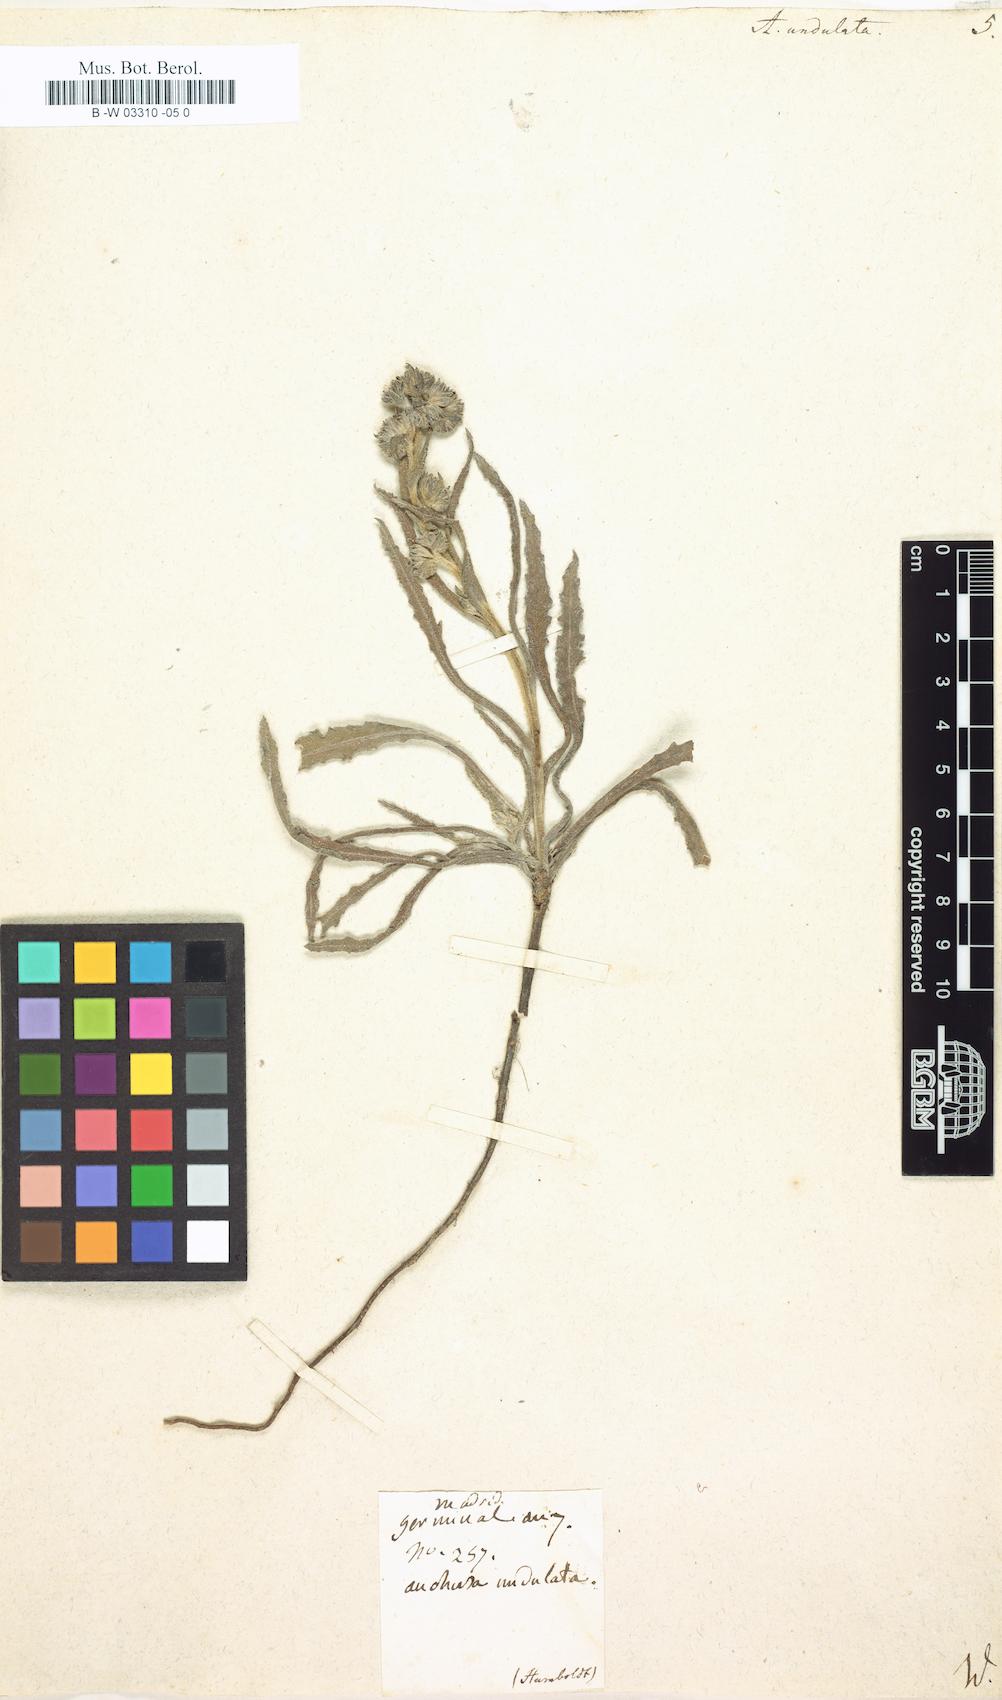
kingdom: Plantae
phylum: Tracheophyta
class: Magnoliopsida
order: Boraginales
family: Boraginaceae
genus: Anchusa
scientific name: Anchusa undulata
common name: Undulate alkanet
